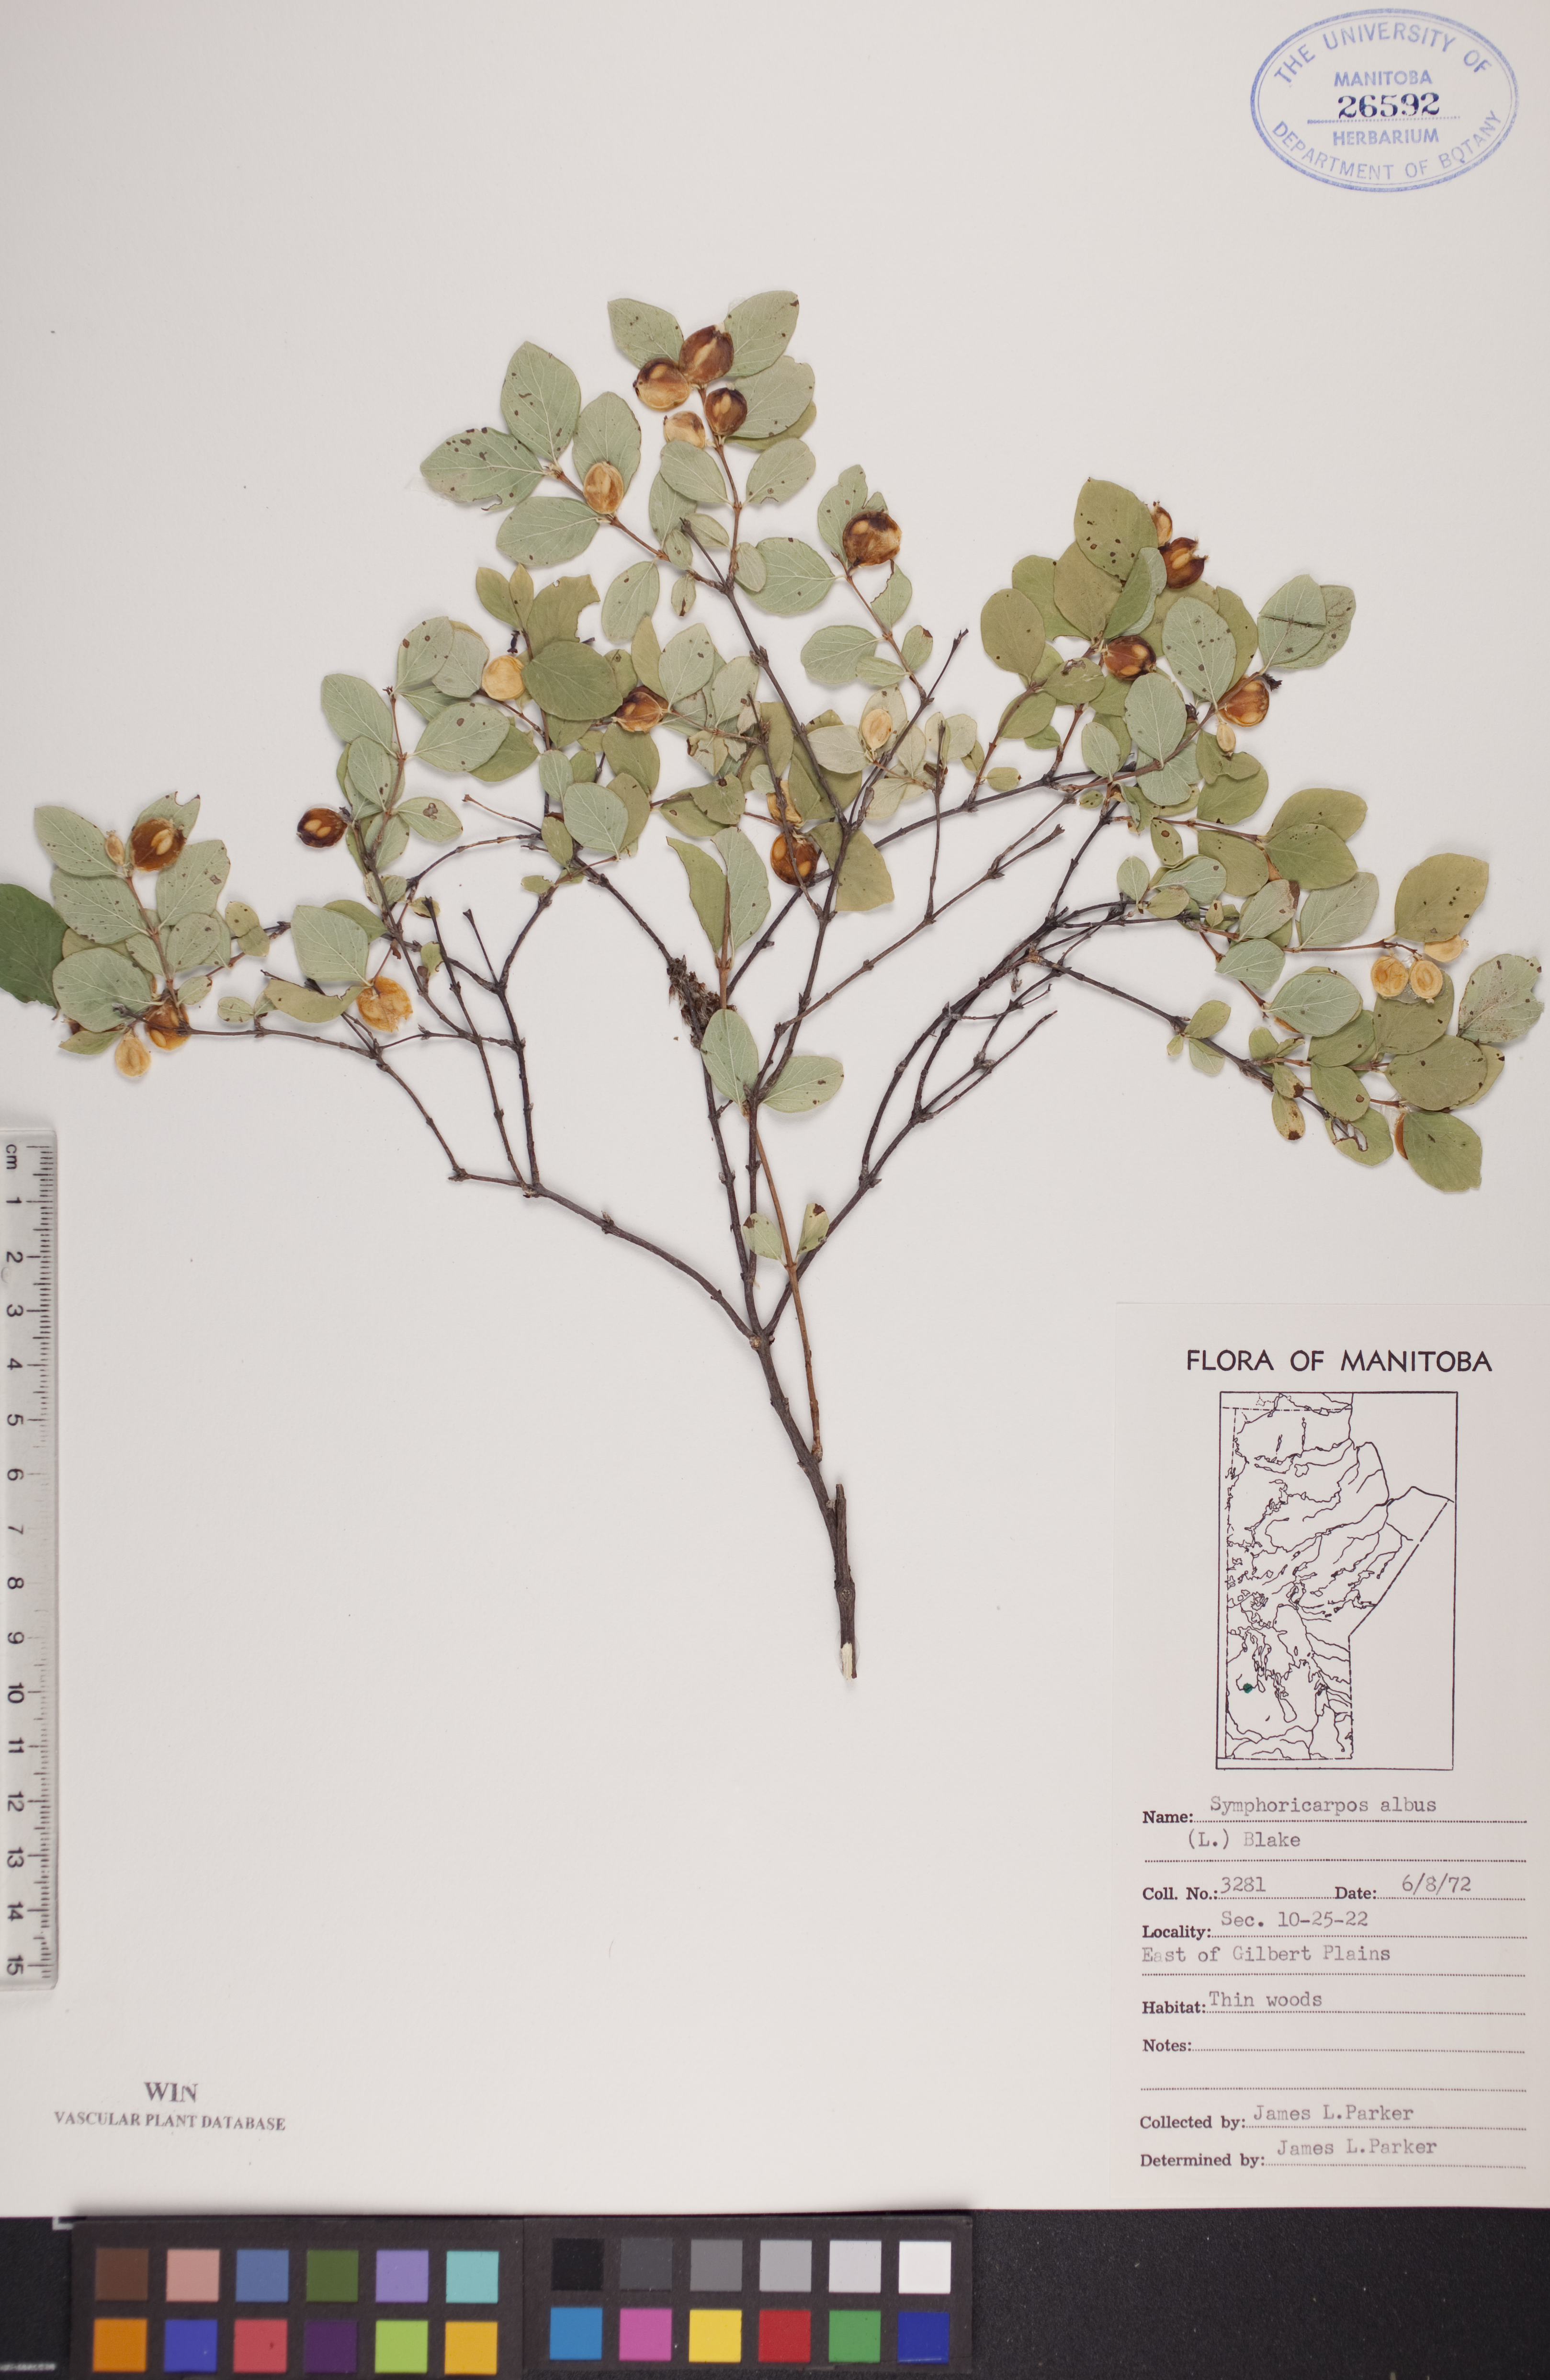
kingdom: Plantae
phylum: Tracheophyta
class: Magnoliopsida
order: Dipsacales
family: Caprifoliaceae
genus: Symphoricarpos
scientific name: Symphoricarpos albus
